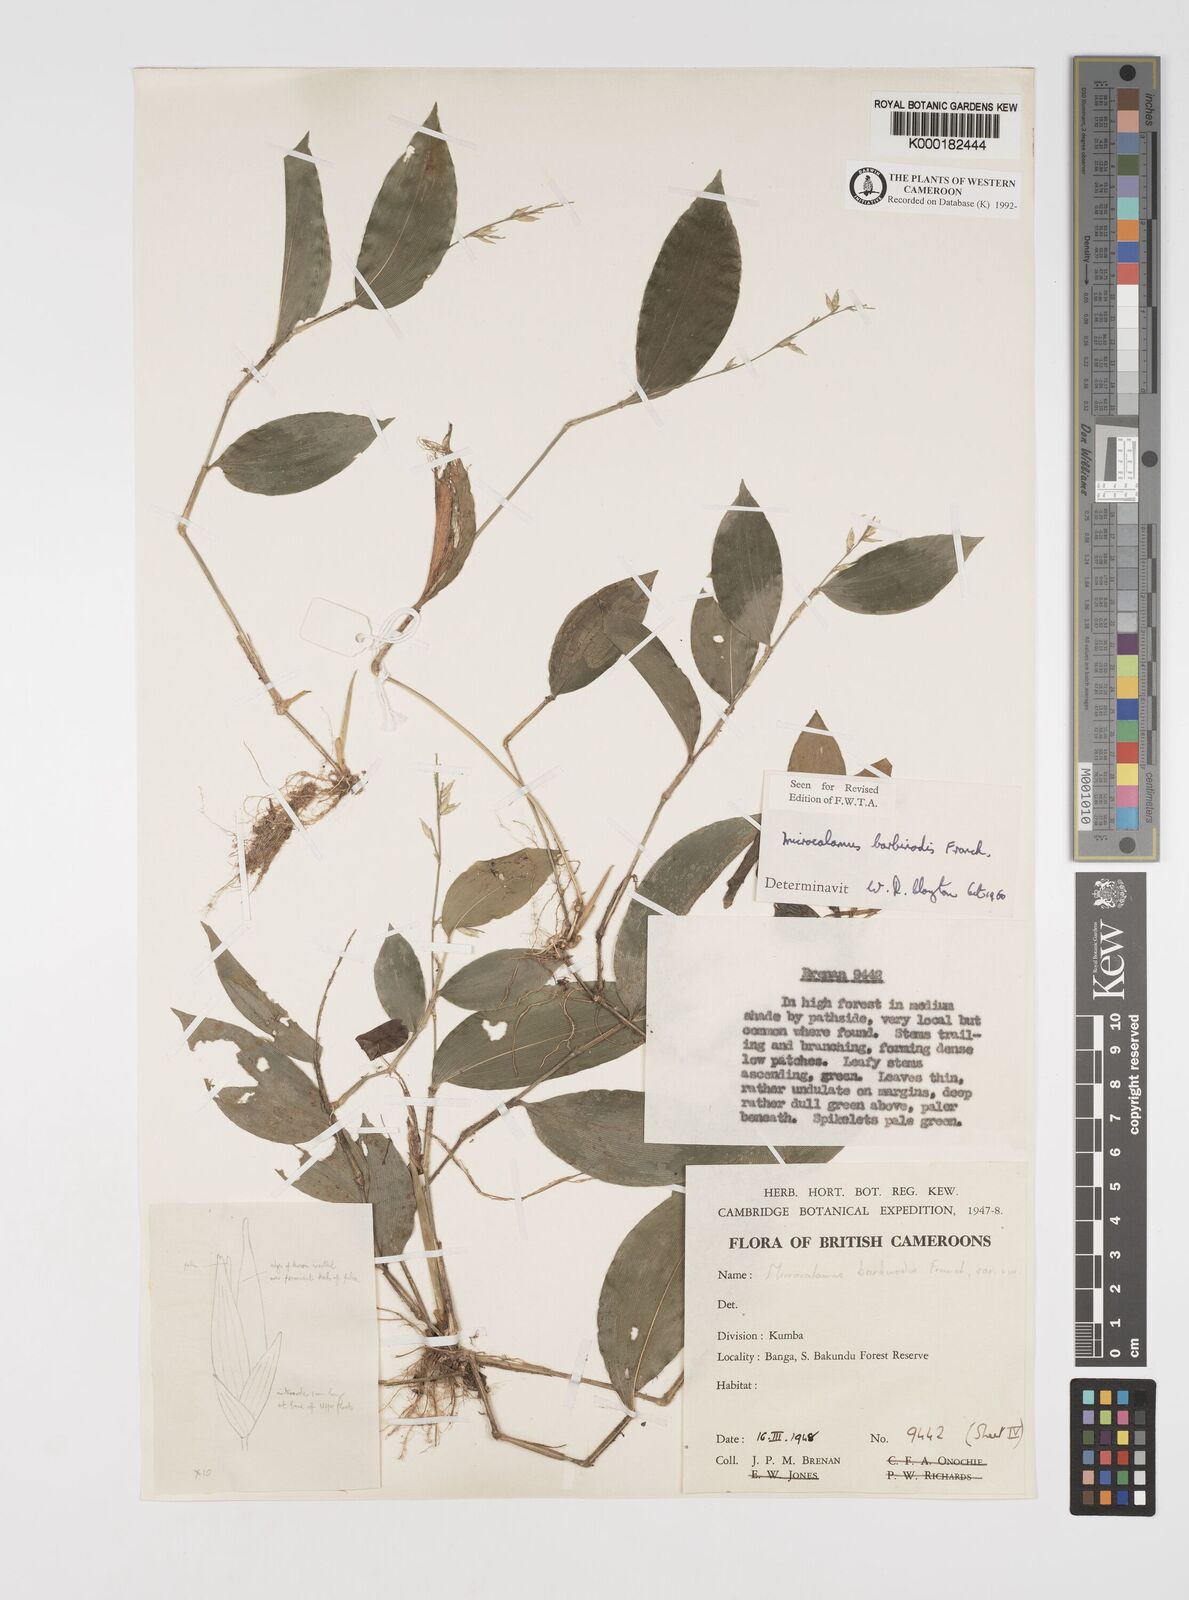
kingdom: Plantae
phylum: Tracheophyta
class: Liliopsida
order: Poales
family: Poaceae
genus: Microcalamus
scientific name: Microcalamus barbinodis
